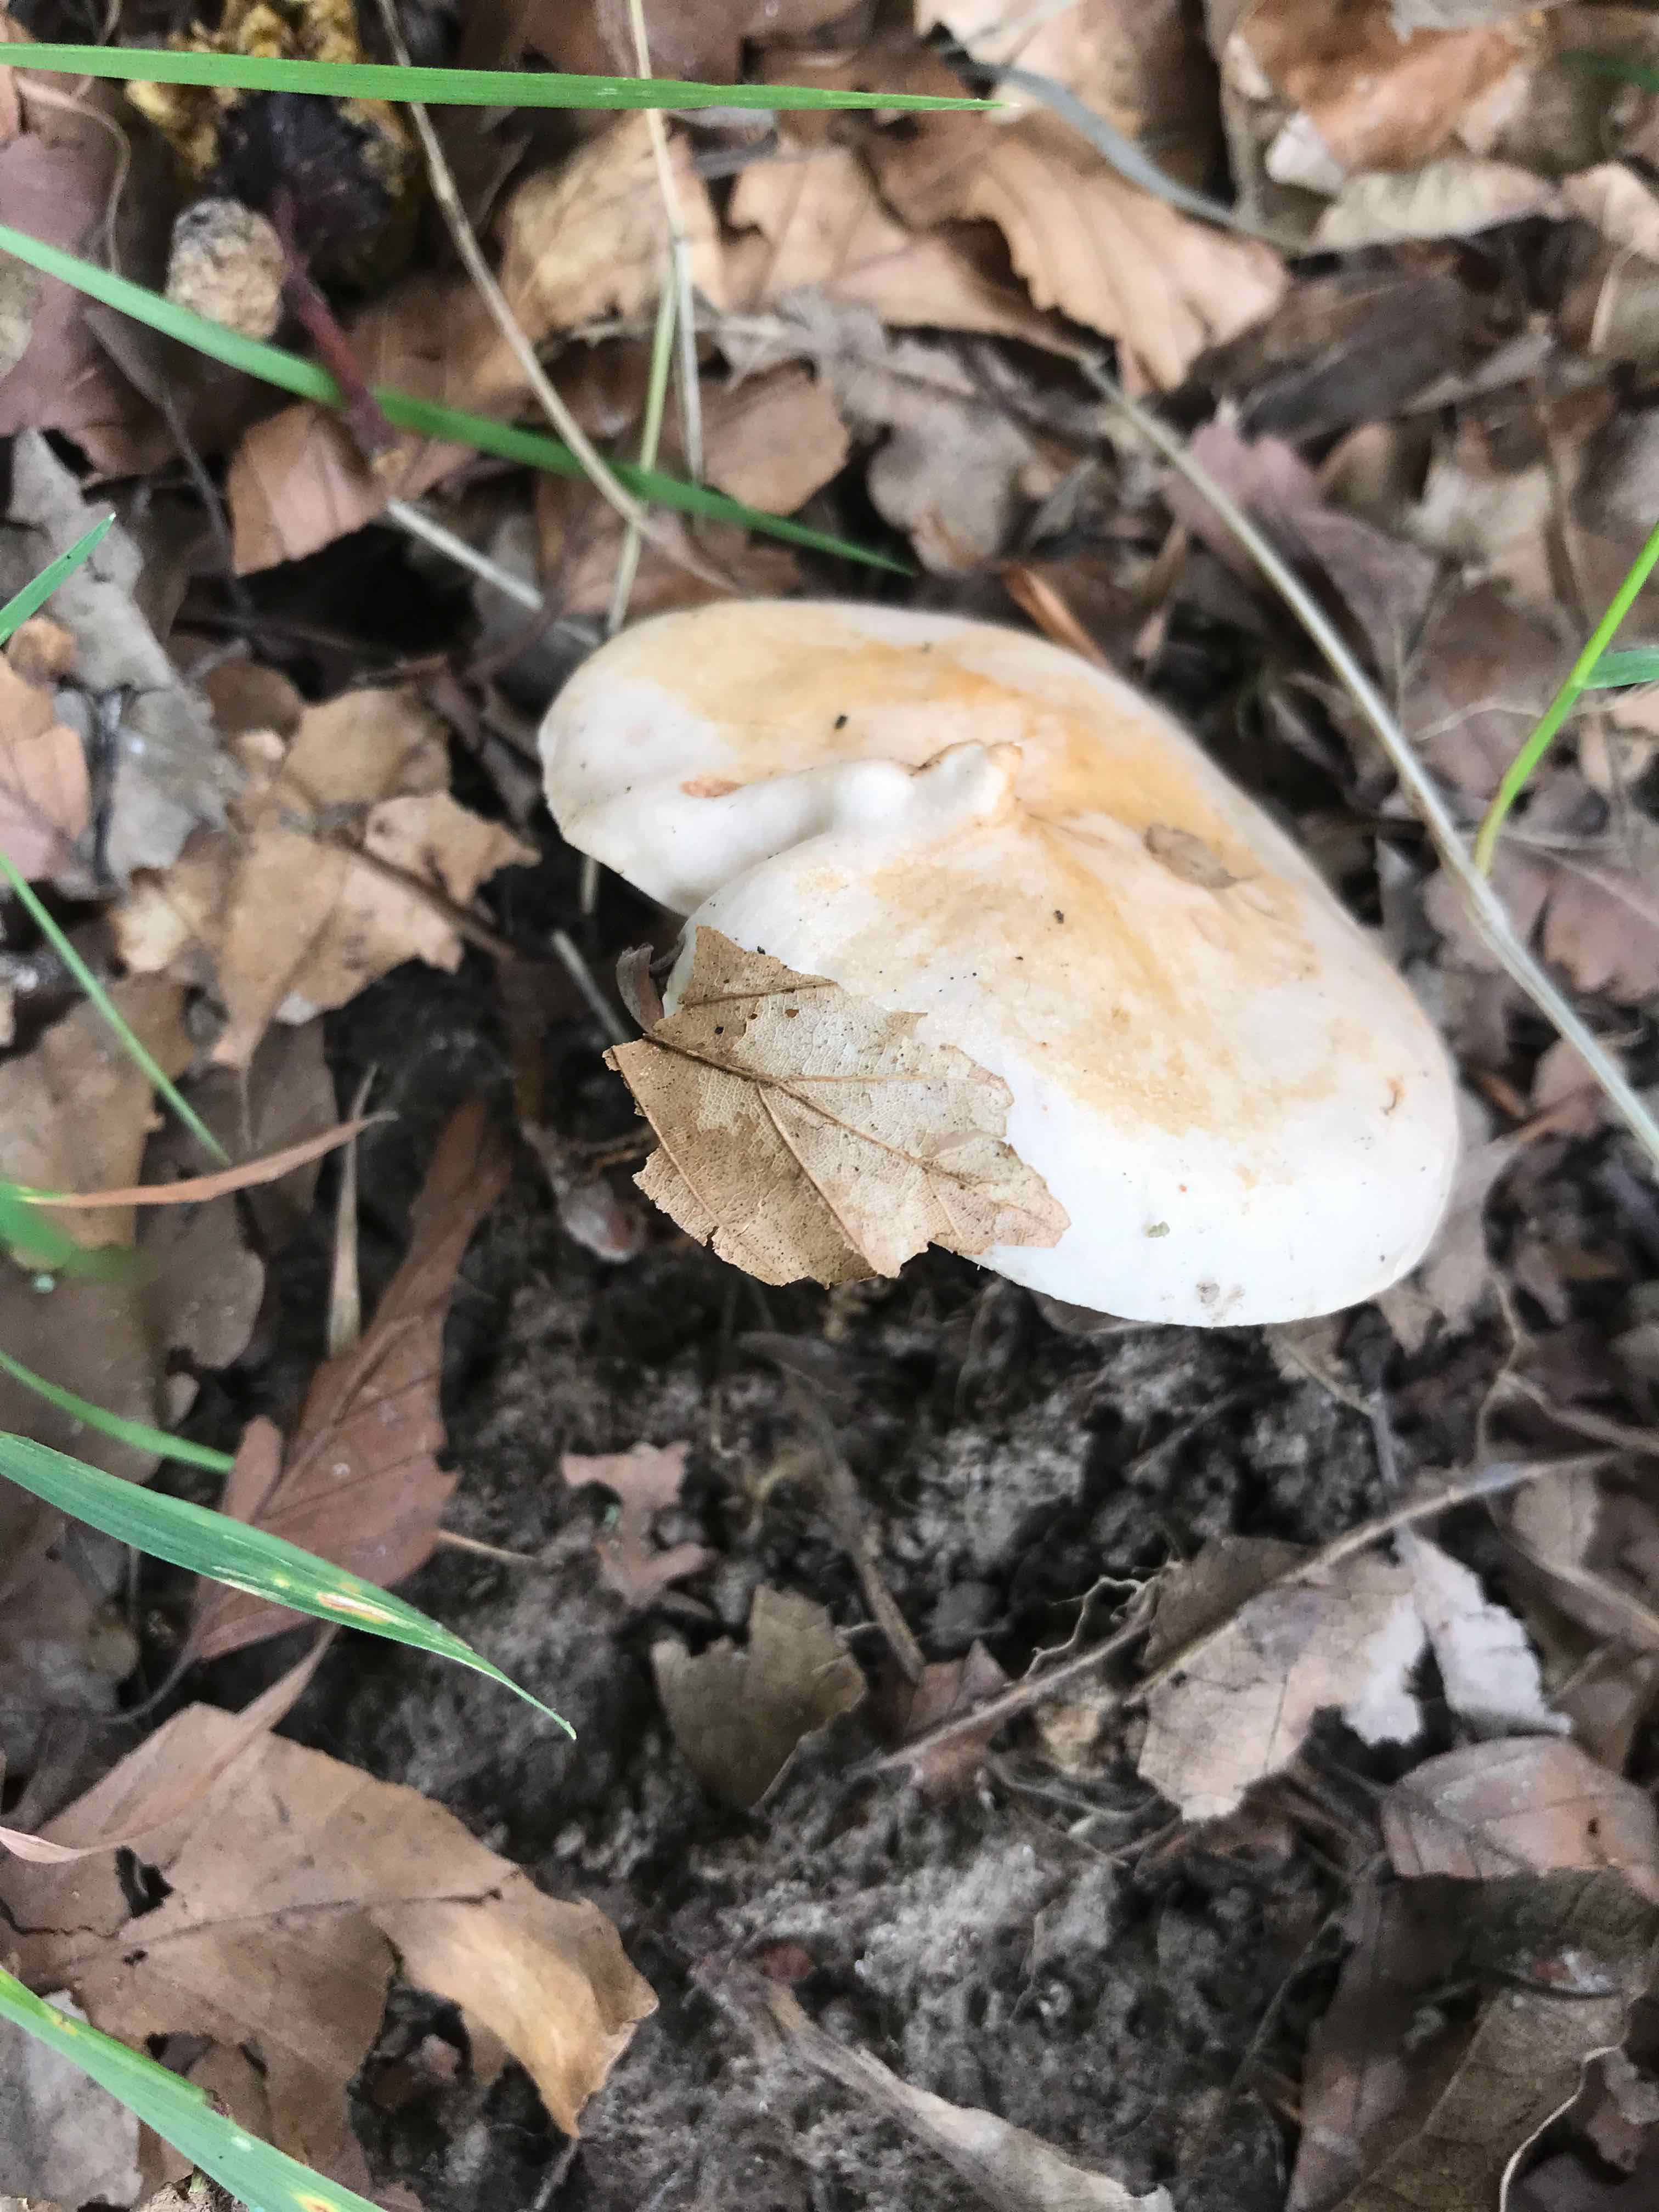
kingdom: Fungi
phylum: Basidiomycota
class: Agaricomycetes
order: Russulales
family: Russulaceae
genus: Lactarius
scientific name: Lactarius pallidus
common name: bleg mælkehat
